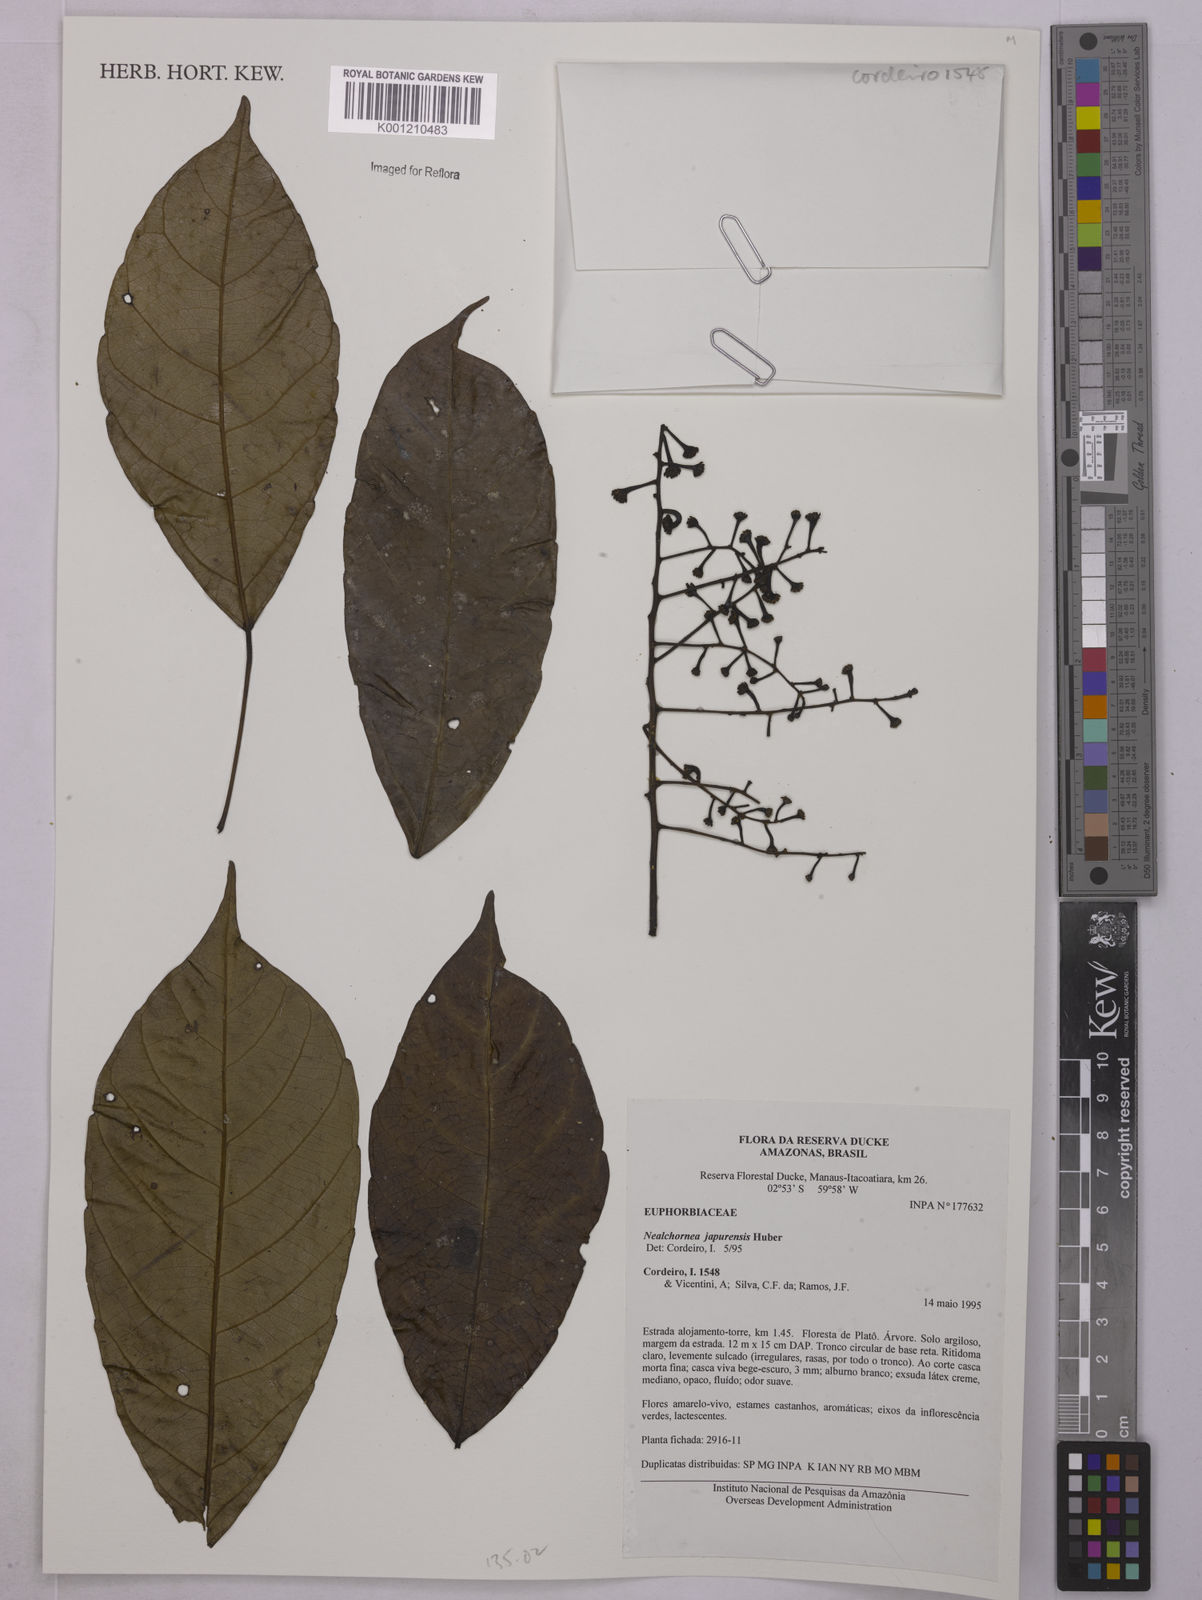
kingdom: Plantae
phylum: Tracheophyta
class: Magnoliopsida
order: Malpighiales
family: Euphorbiaceae
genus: Nealchornea
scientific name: Nealchornea yapurensis
